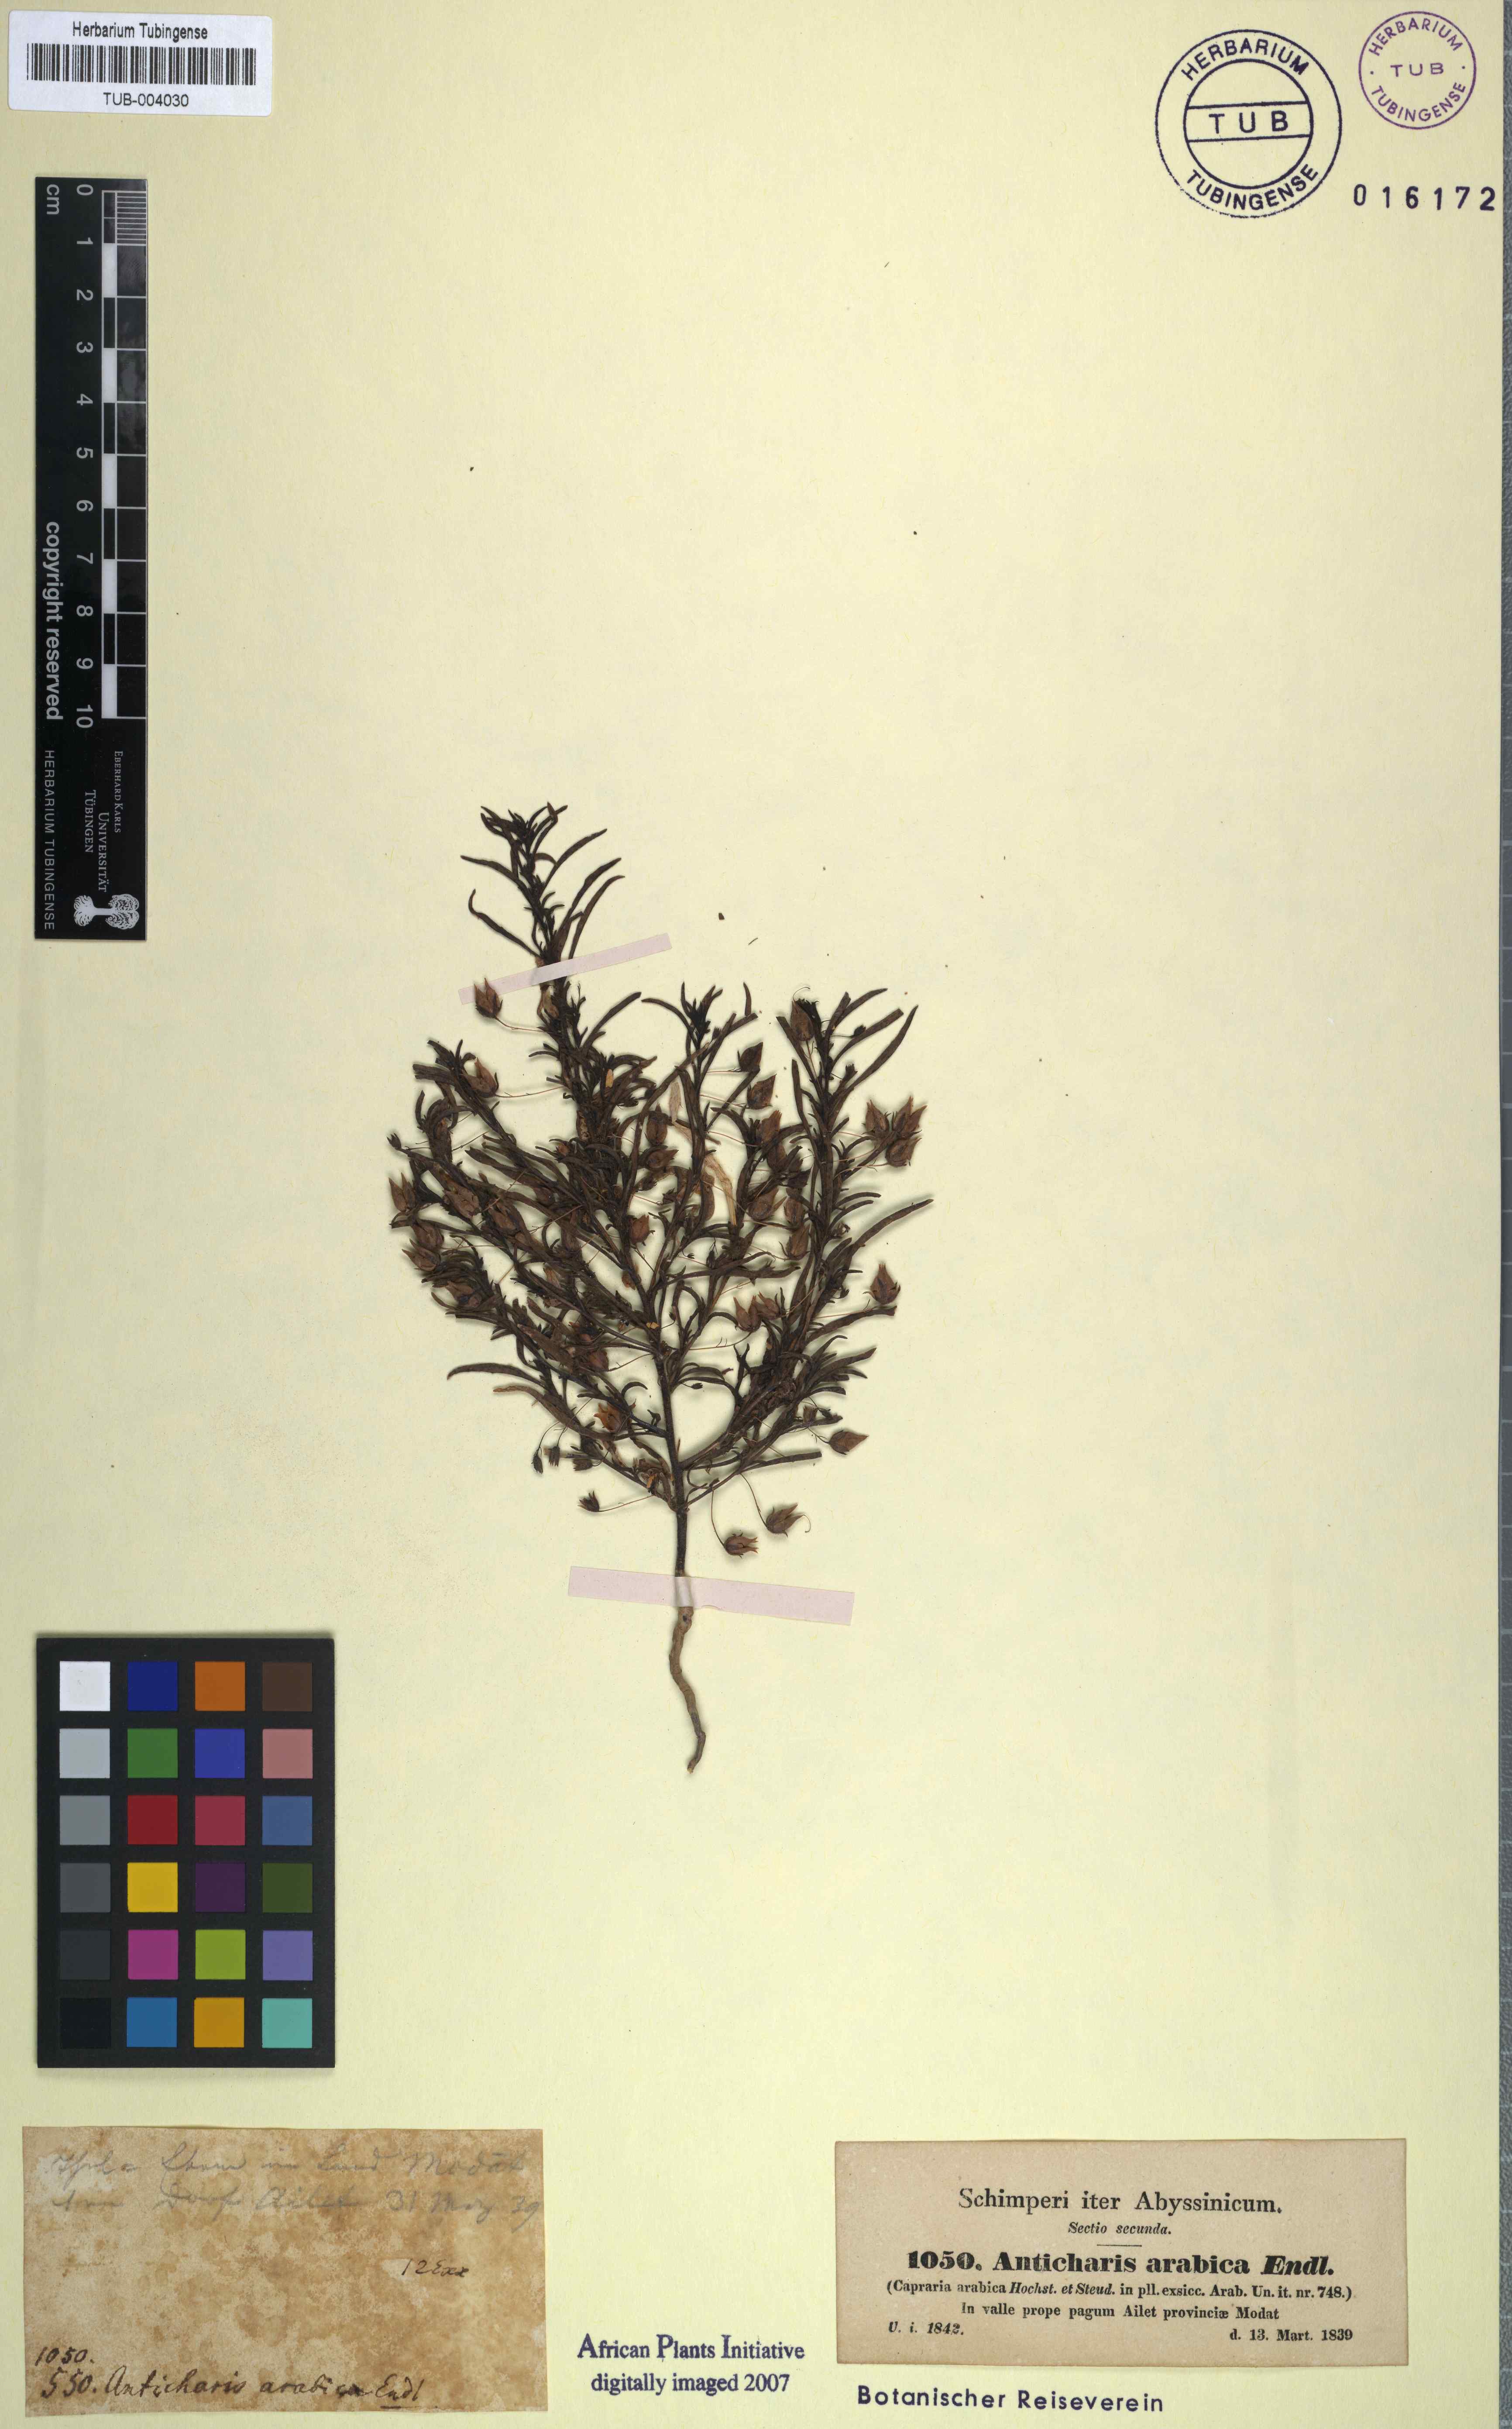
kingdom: Plantae
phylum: Tracheophyta
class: Magnoliopsida
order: Lamiales
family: Scrophulariaceae
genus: Anticharis
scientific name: Anticharis arabica
